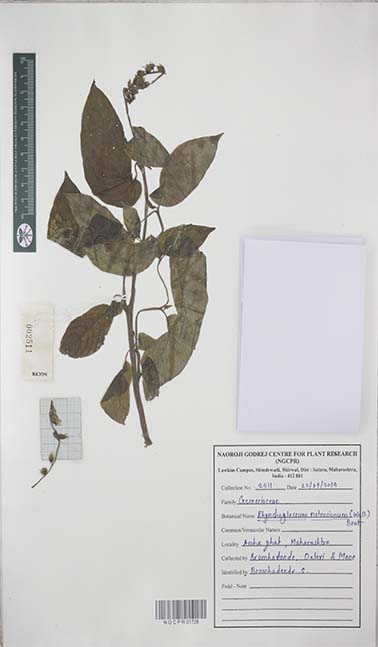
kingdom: Plantae
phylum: Tracheophyta
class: Magnoliopsida
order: Lamiales
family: Gesneriaceae
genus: Rhynchoglossum
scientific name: Rhynchoglossum notonianum
